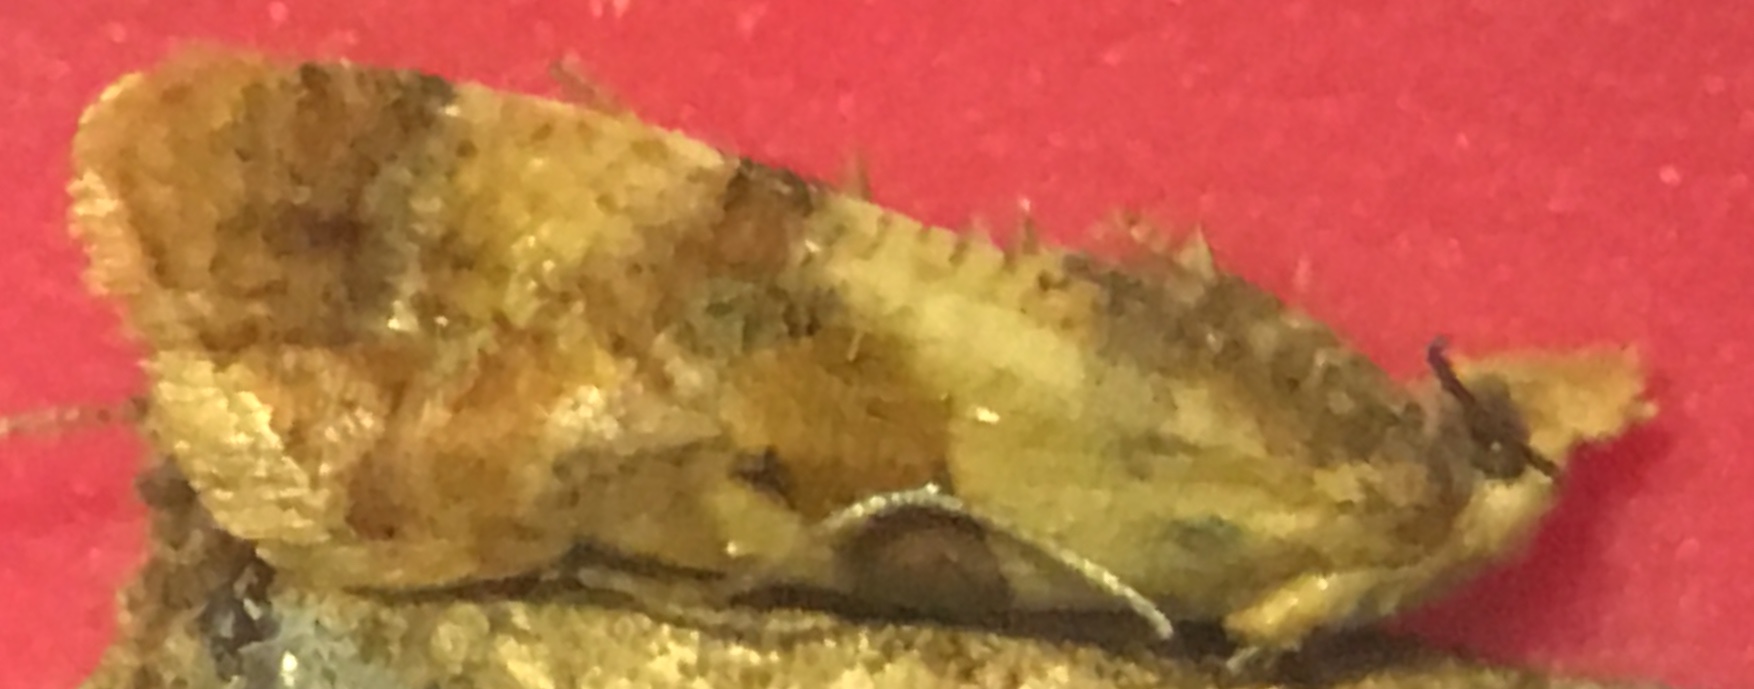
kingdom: Animalia
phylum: Arthropoda
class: Insecta
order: Lepidoptera
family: Tortricidae
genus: Cochylidia
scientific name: Cochylidia subroseana
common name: Dingy roseate conch
